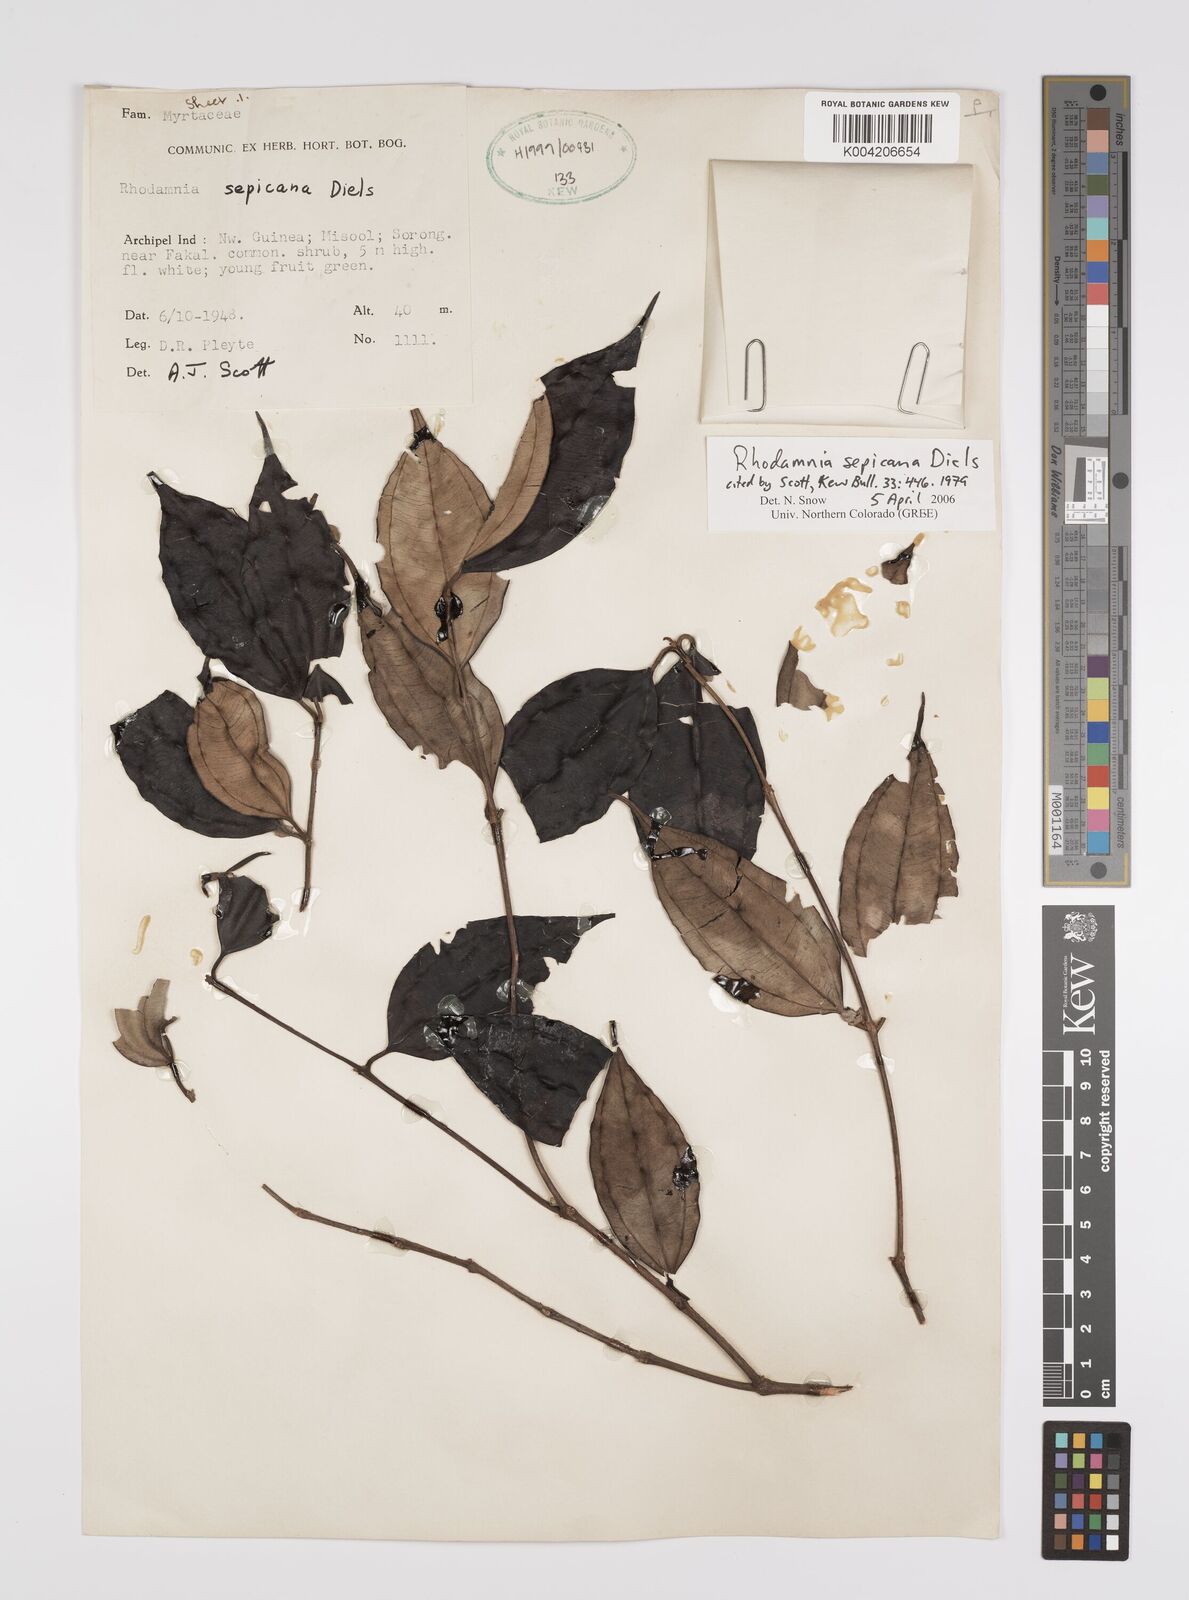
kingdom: Plantae
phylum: Tracheophyta
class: Magnoliopsida
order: Myrtales
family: Myrtaceae
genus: Rhodamnia
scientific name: Rhodamnia sepicana
